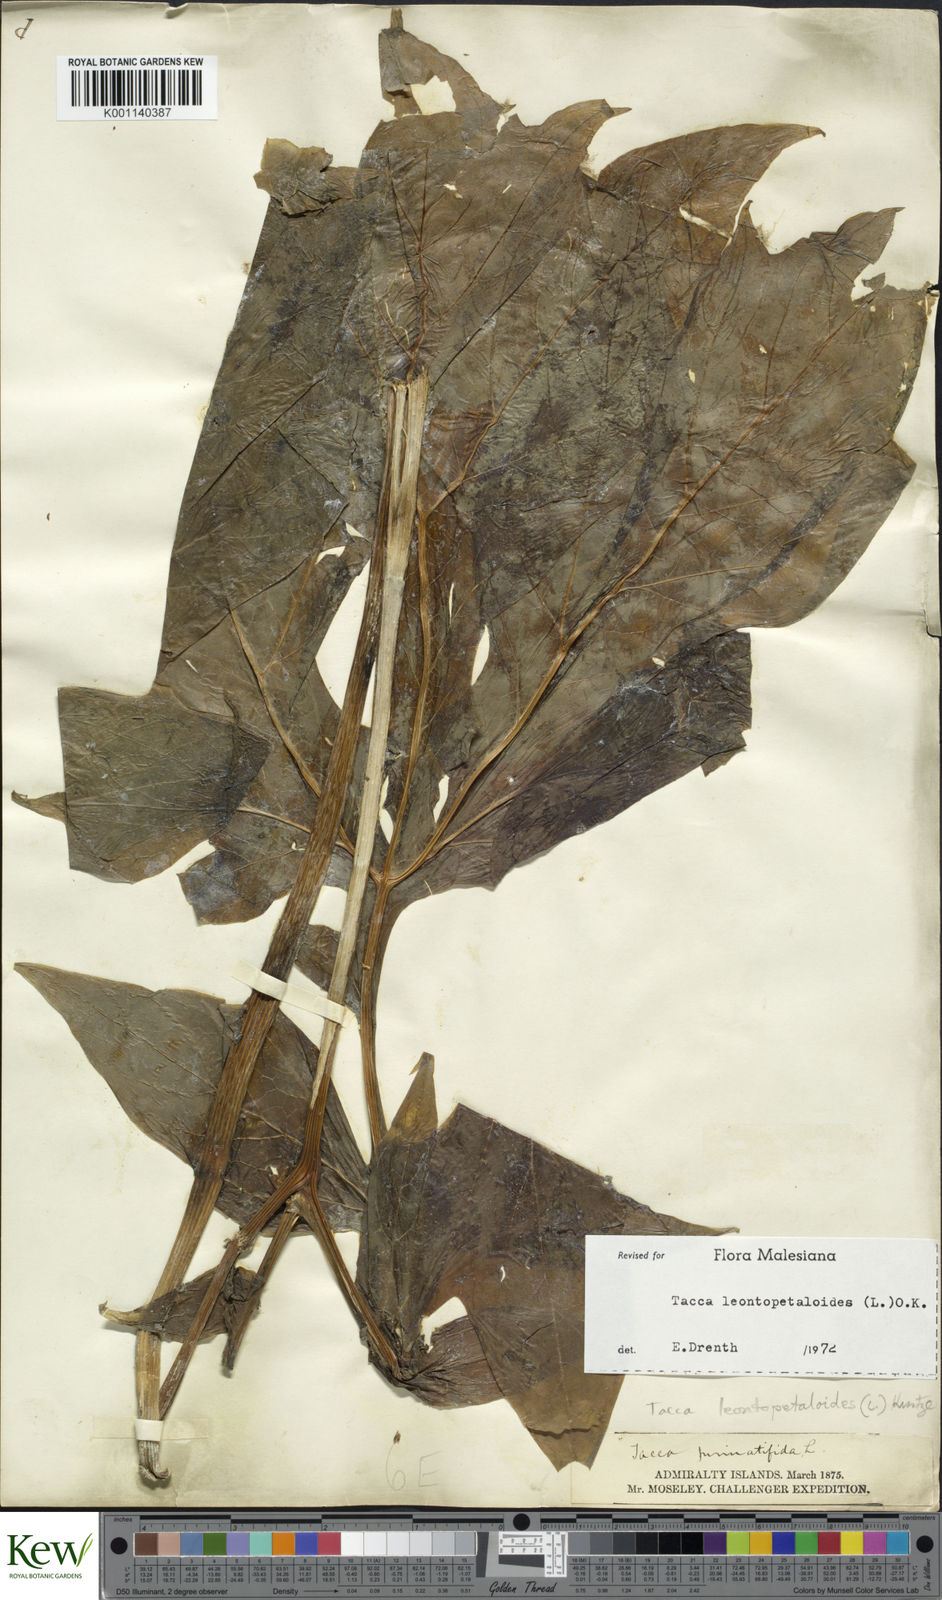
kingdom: Plantae
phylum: Tracheophyta
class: Liliopsida
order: Dioscoreales
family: Dioscoreaceae
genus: Tacca
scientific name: Tacca leontopetaloides
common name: Arrowroot
